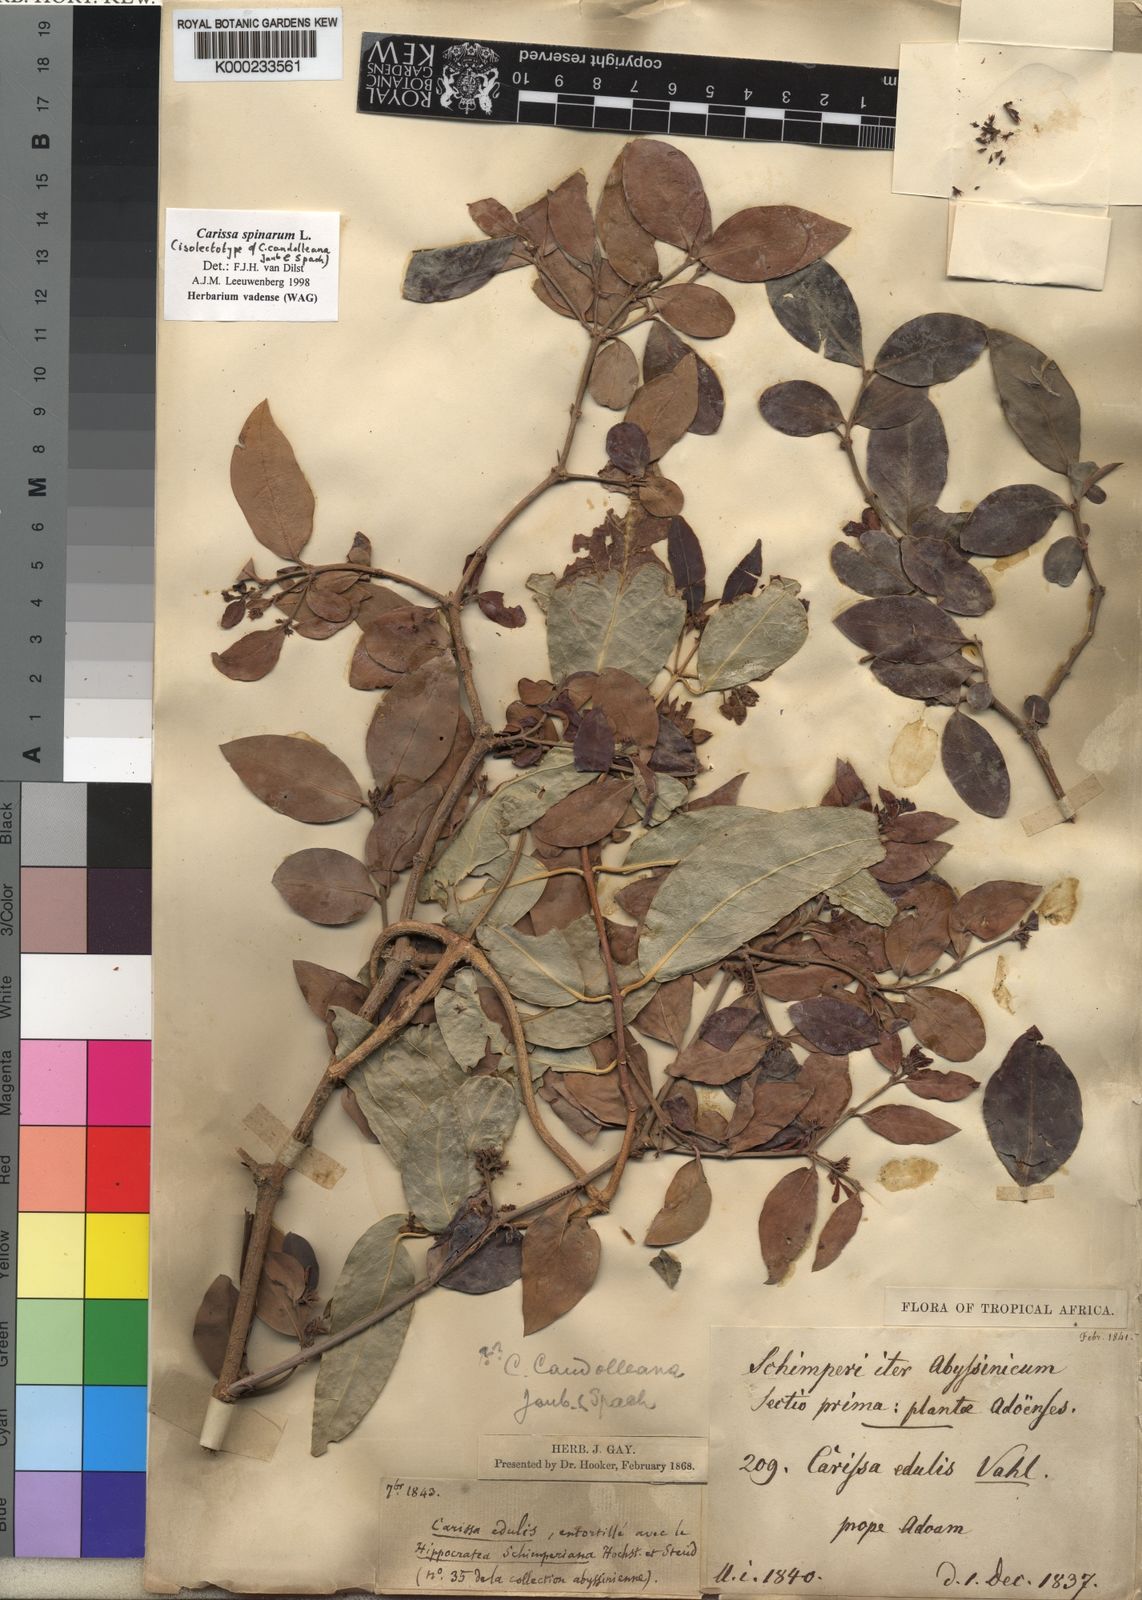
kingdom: Plantae
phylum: Tracheophyta
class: Magnoliopsida
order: Gentianales
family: Apocynaceae
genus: Carissa
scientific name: Carissa spinarum
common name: Egyptian carissa
